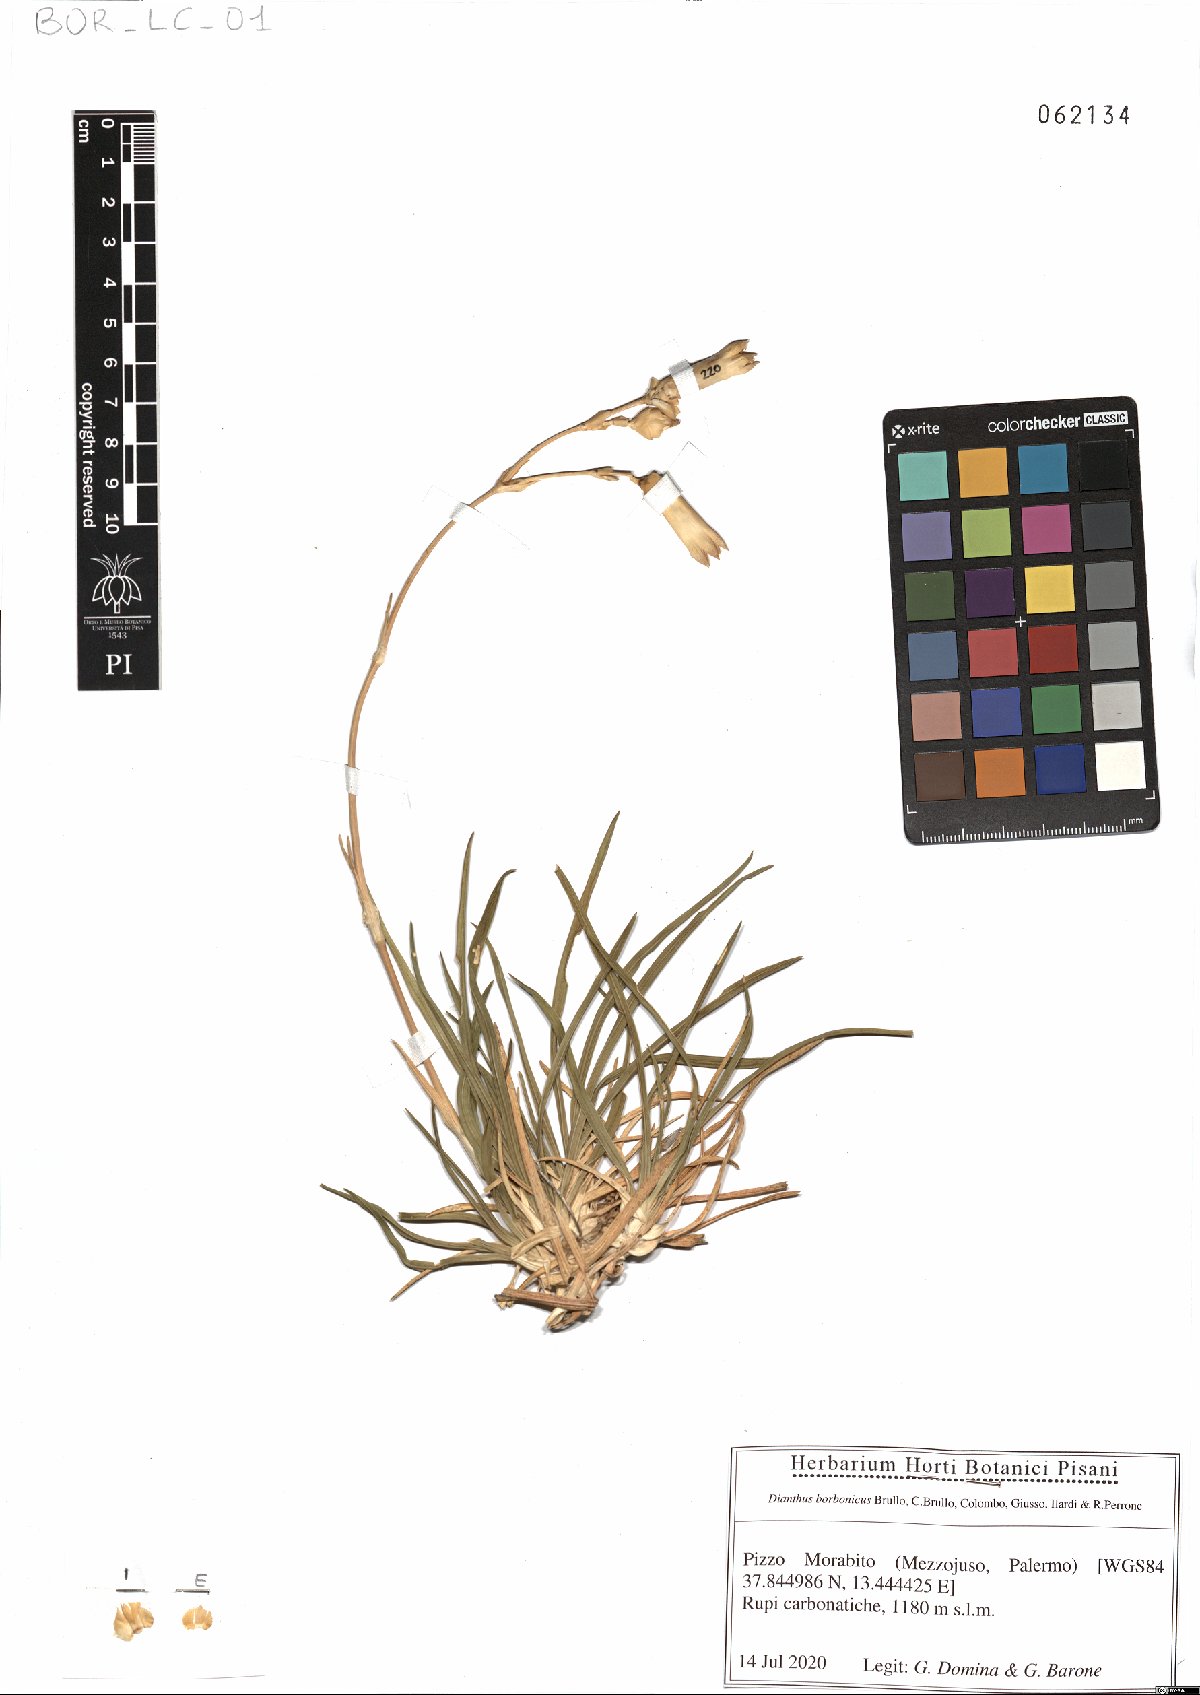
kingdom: Plantae
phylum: Tracheophyta
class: Magnoliopsida
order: Caryophyllales
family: Caryophyllaceae
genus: Dianthus
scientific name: Dianthus borbonicus
